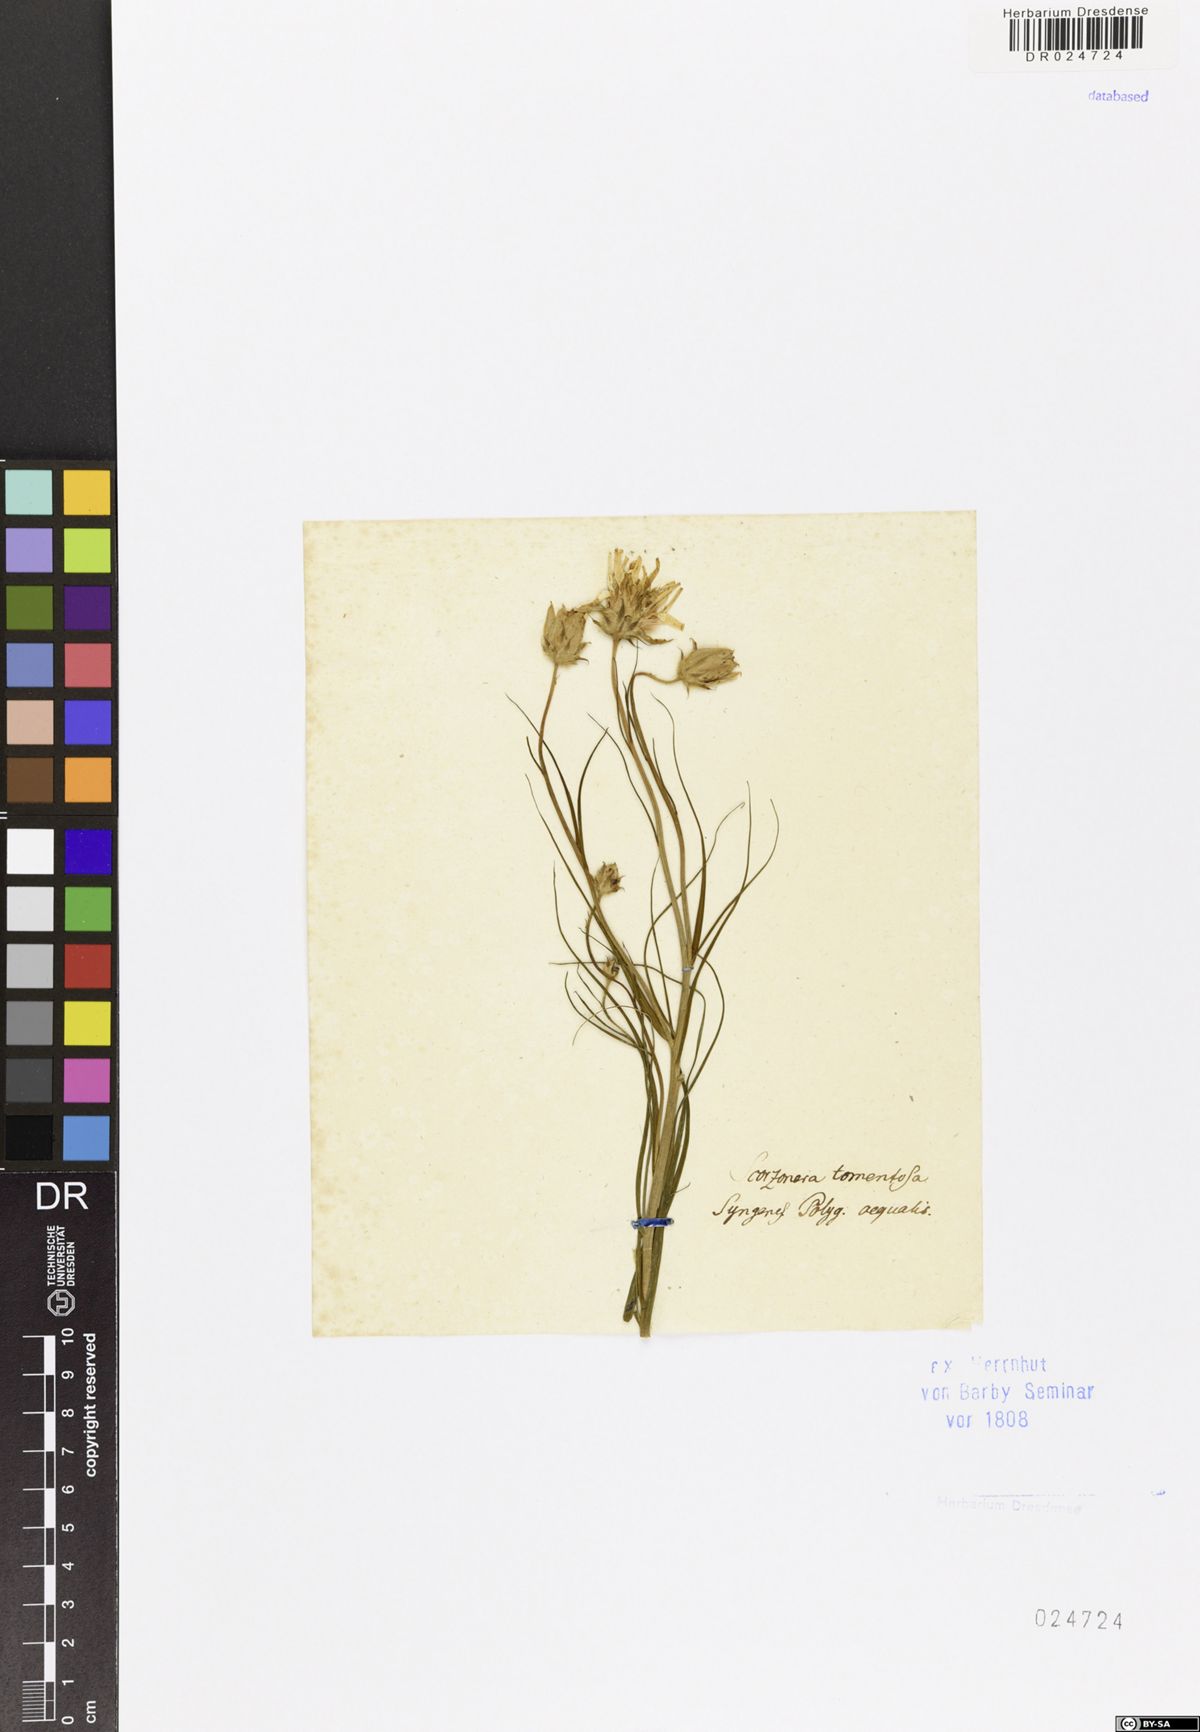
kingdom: Plantae
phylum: Tracheophyta
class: Magnoliopsida
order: Asterales
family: Asteraceae
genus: Gelasia
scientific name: Gelasia ensifolia
